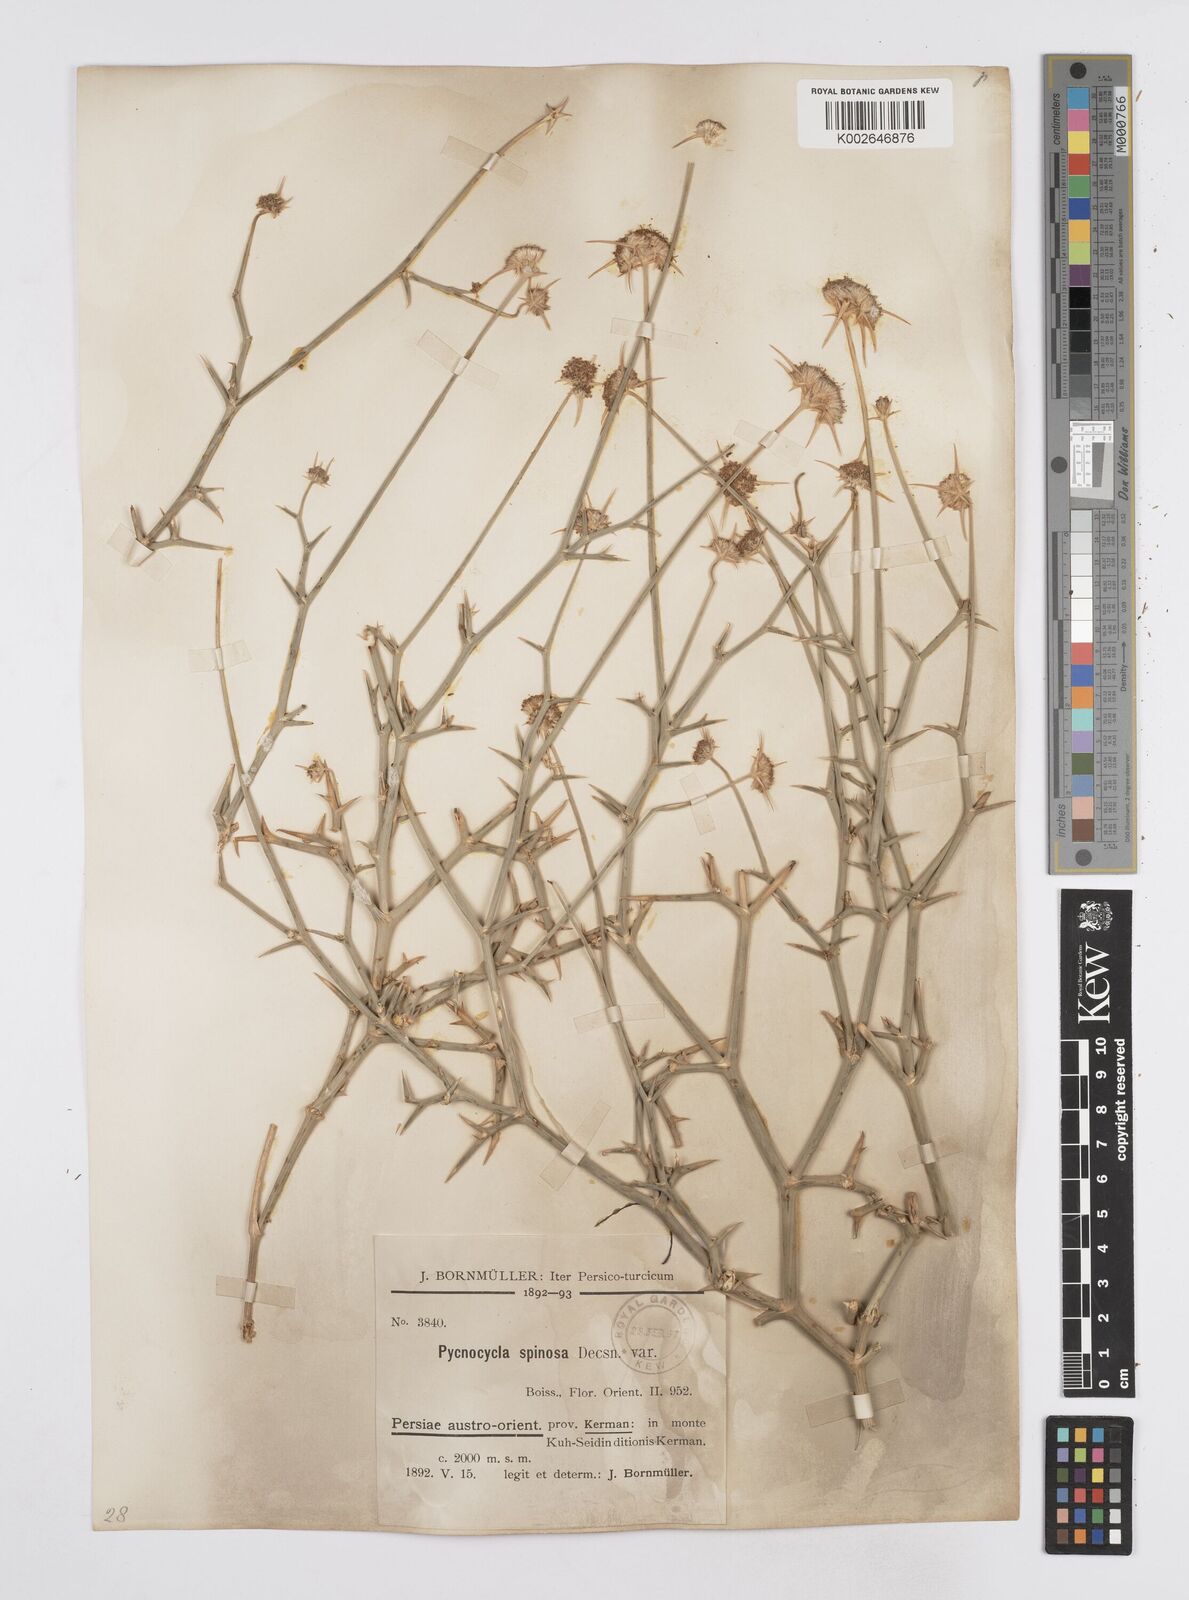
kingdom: Plantae
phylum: Tracheophyta
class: Magnoliopsida
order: Apiales
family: Apiaceae
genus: Pycnocycla
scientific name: Pycnocycla spinosa
